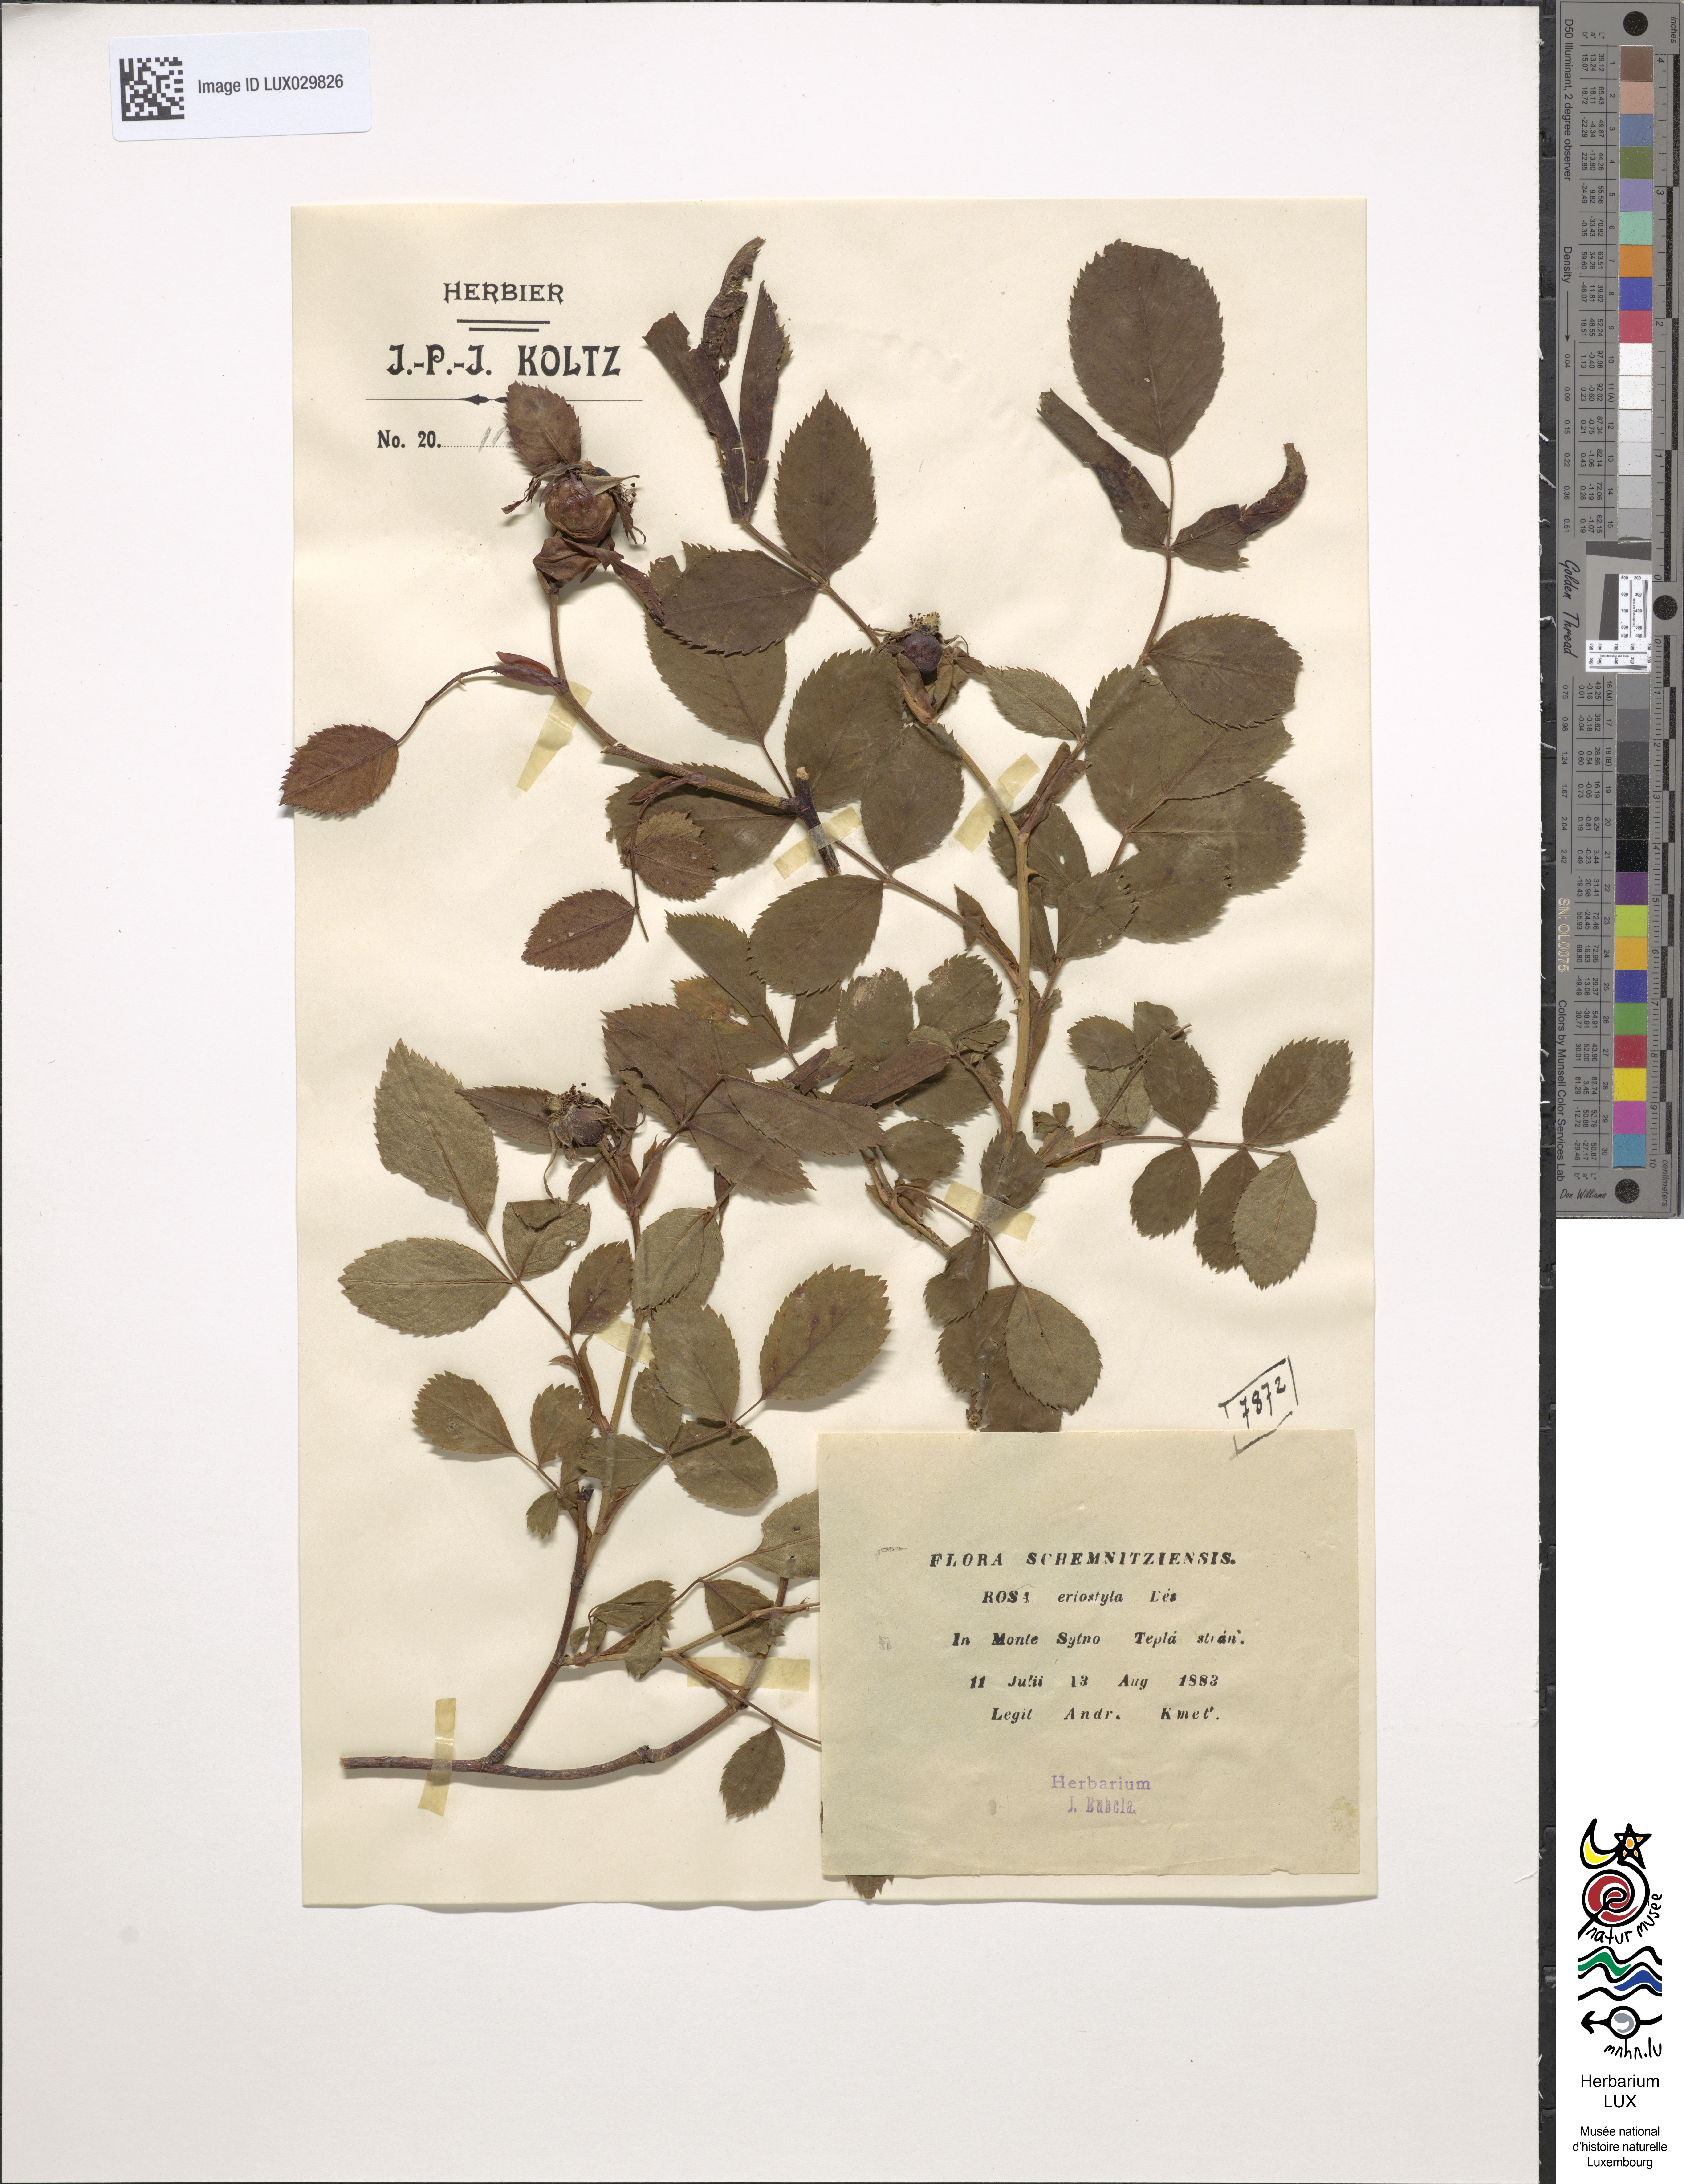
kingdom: Plantae
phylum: Tracheophyta
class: Magnoliopsida
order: Rosales
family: Rosaceae
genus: Rosa
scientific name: Rosa canina
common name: Dog rose
